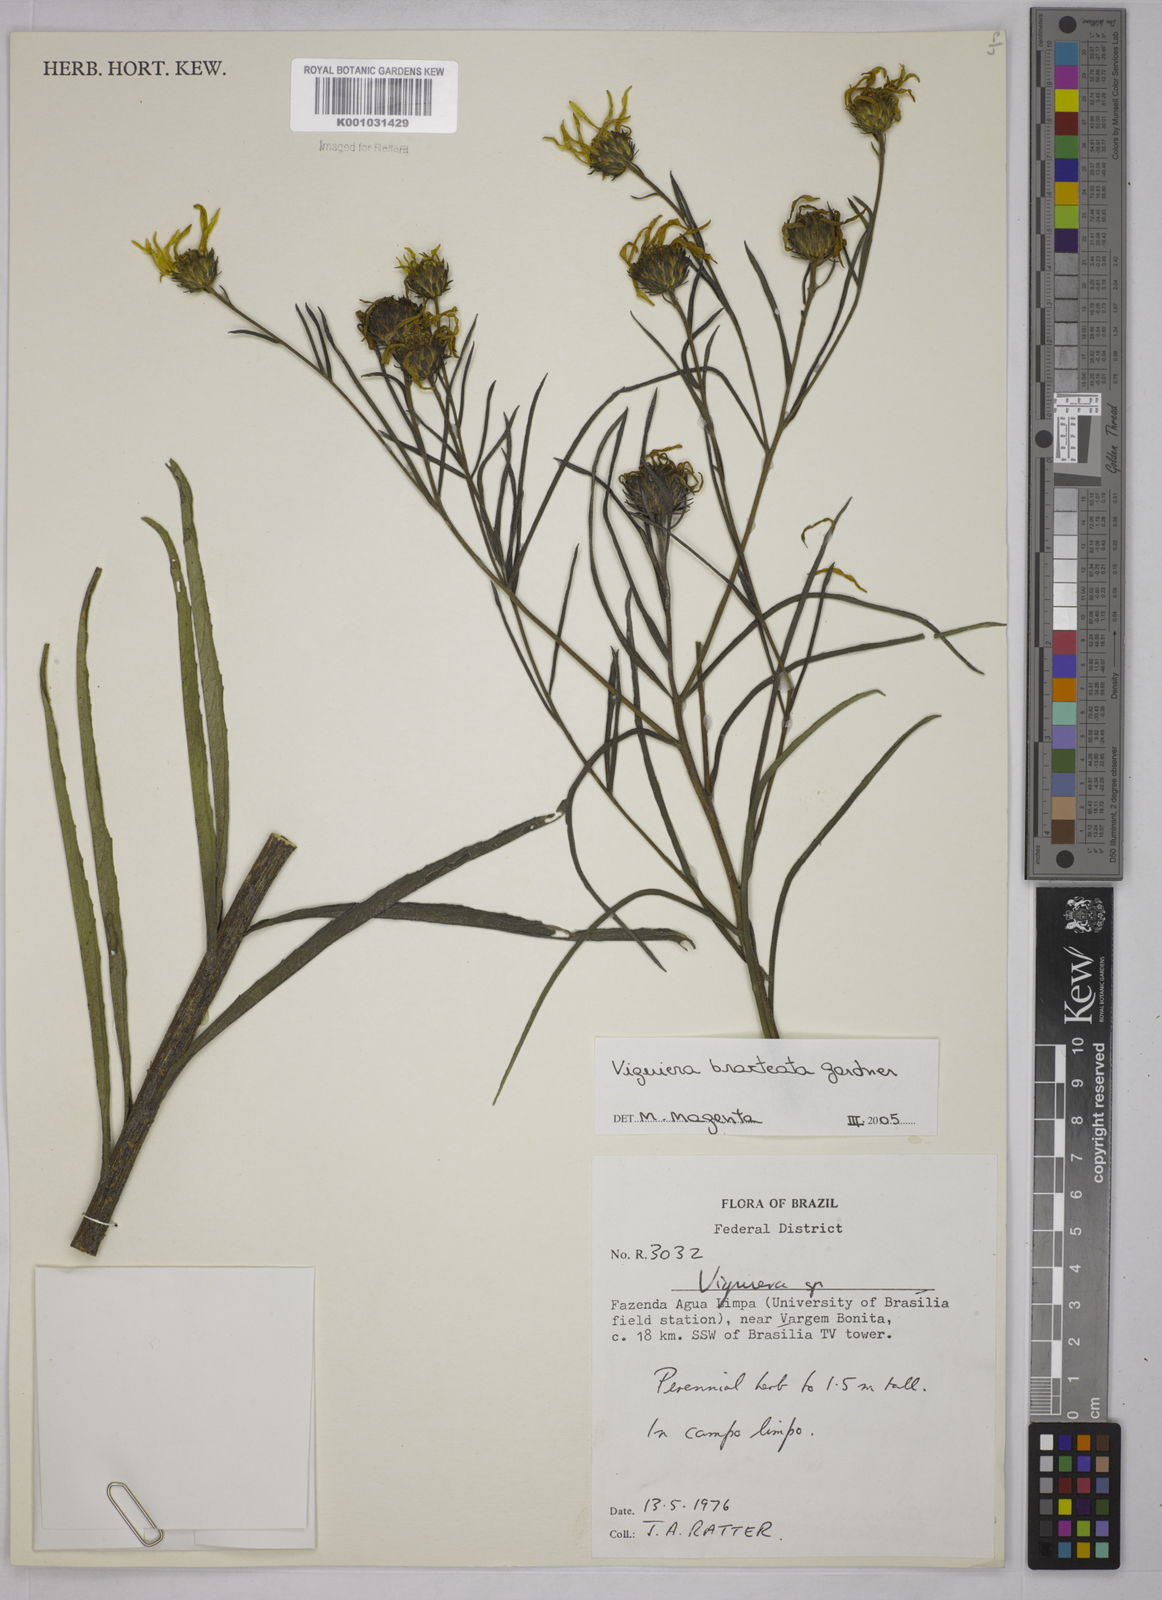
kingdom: Plantae
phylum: Tracheophyta
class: Magnoliopsida
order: Asterales
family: Asteraceae
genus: Aldama
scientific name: Aldama bracteata
